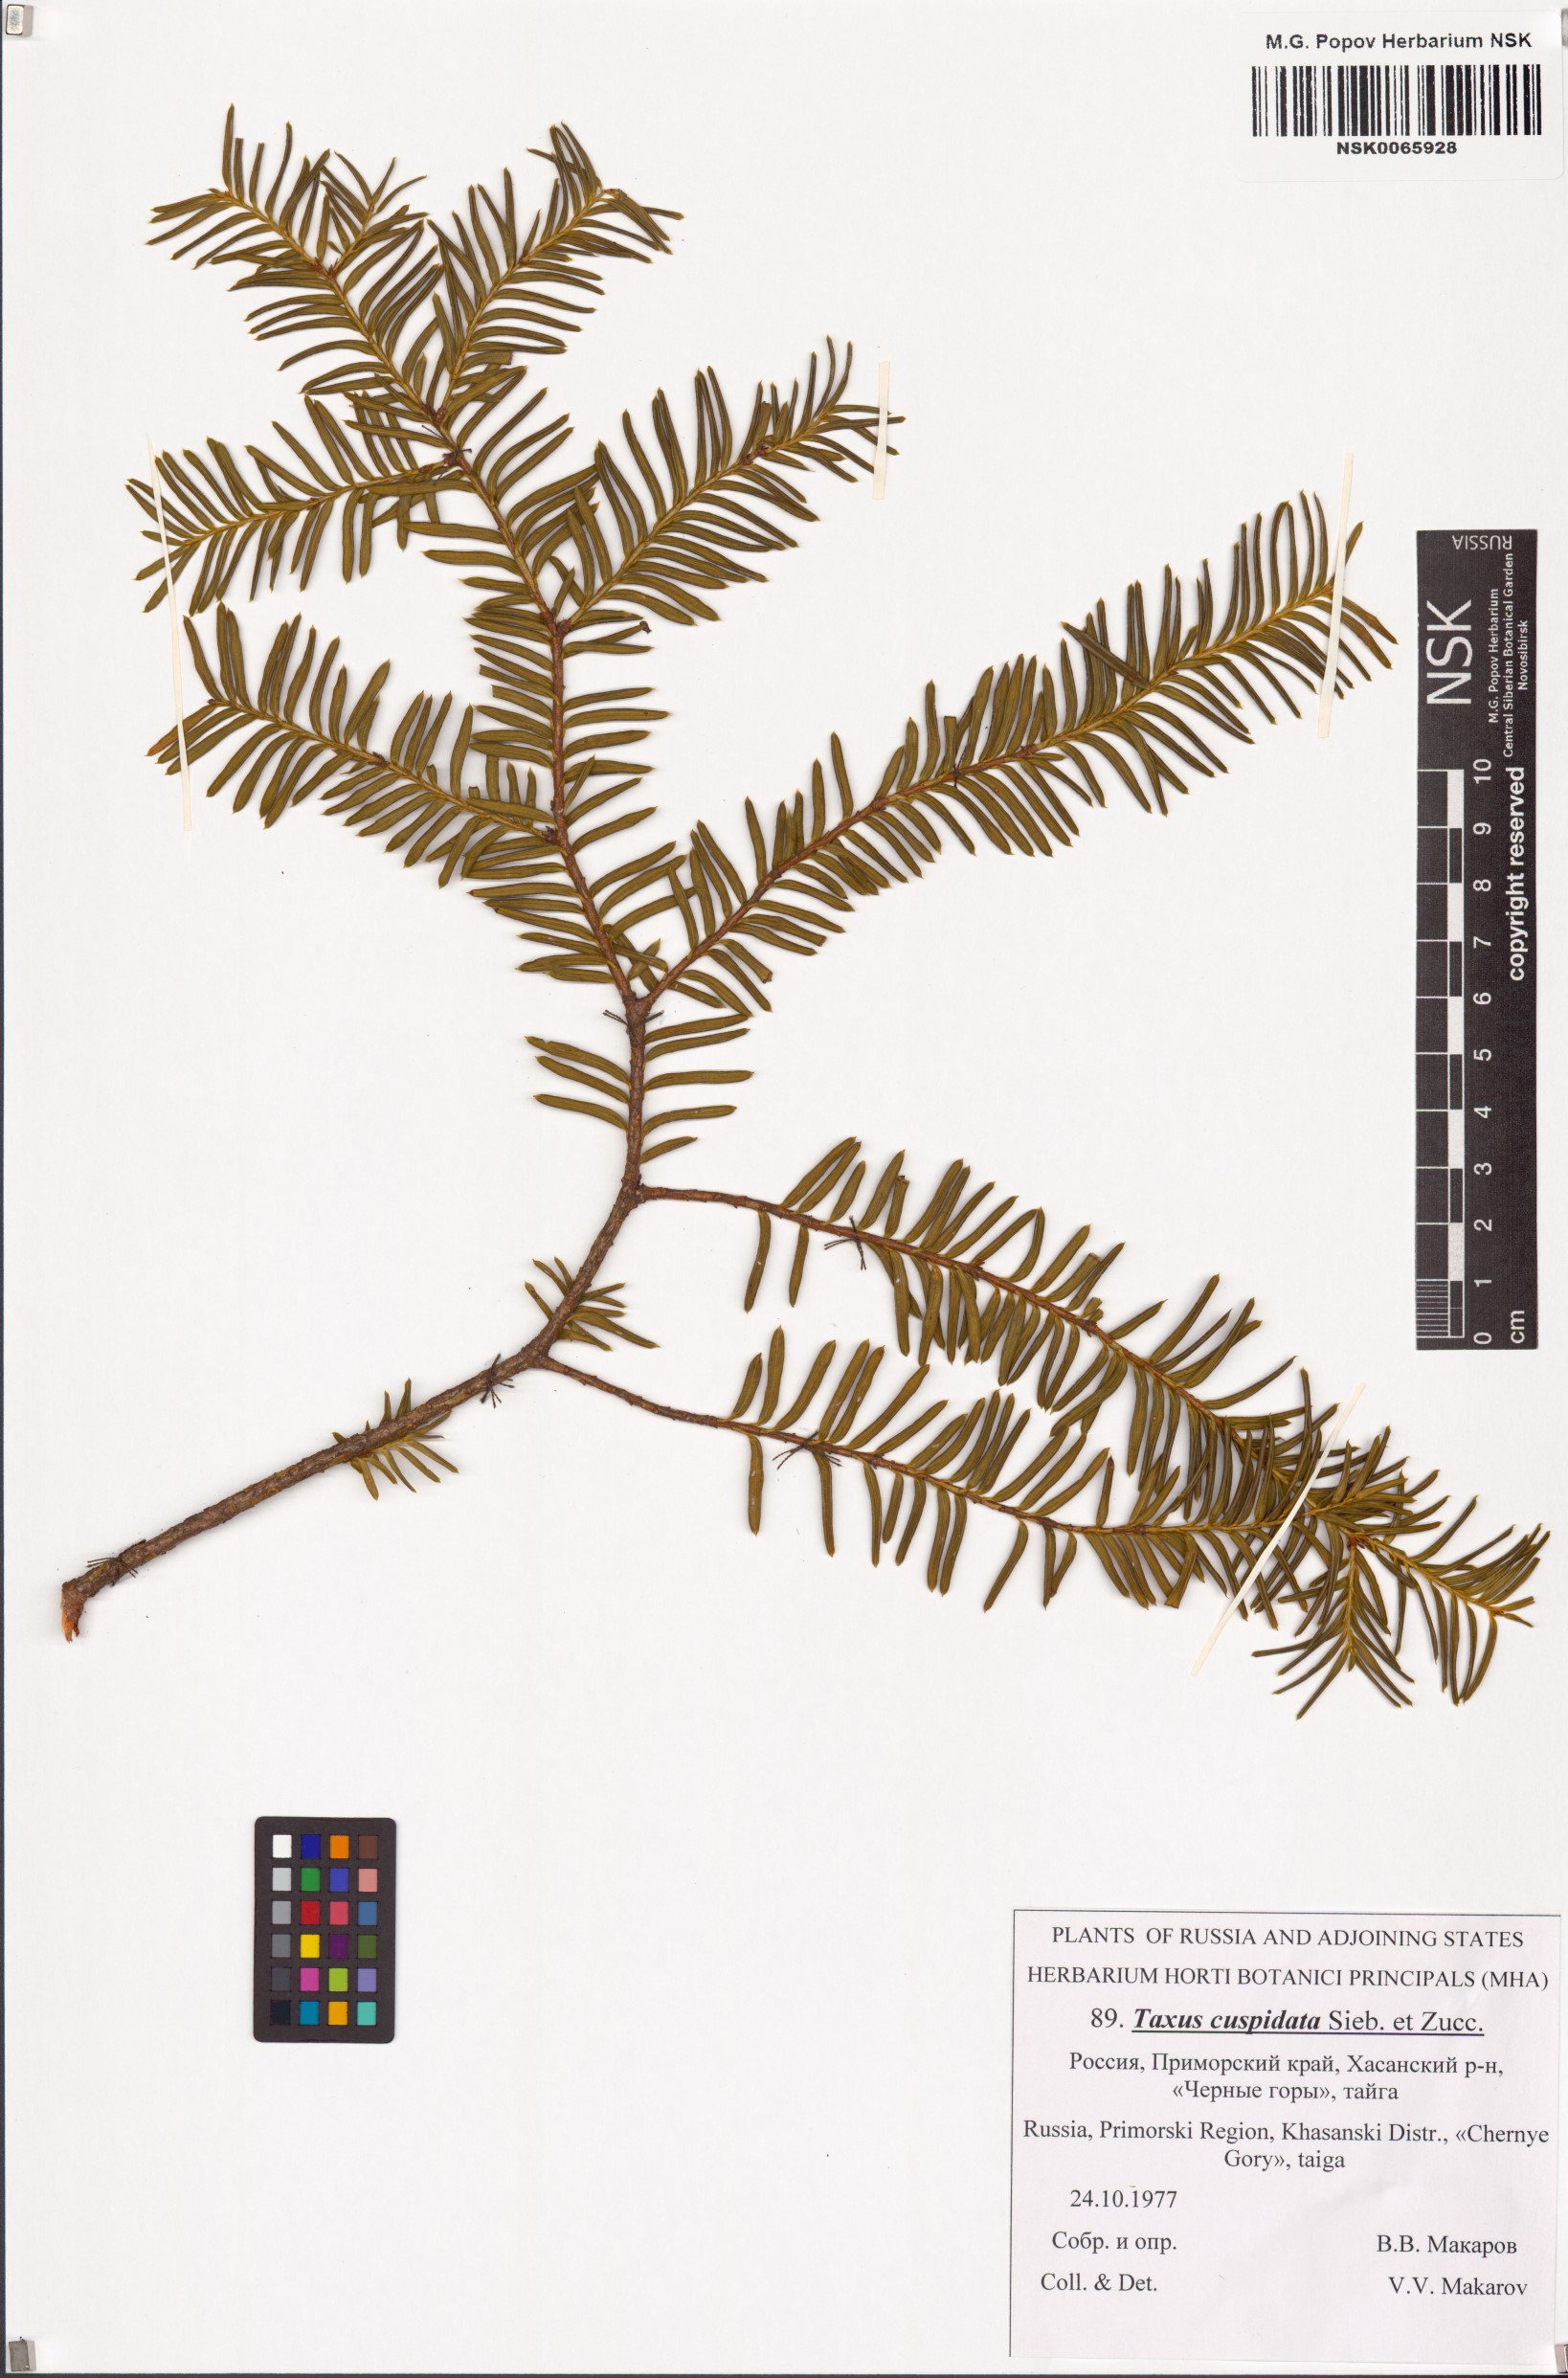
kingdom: Plantae
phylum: Tracheophyta
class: Pinopsida
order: Pinales
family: Taxaceae
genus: Taxus
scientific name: Taxus cuspidata
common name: Japanese yew
